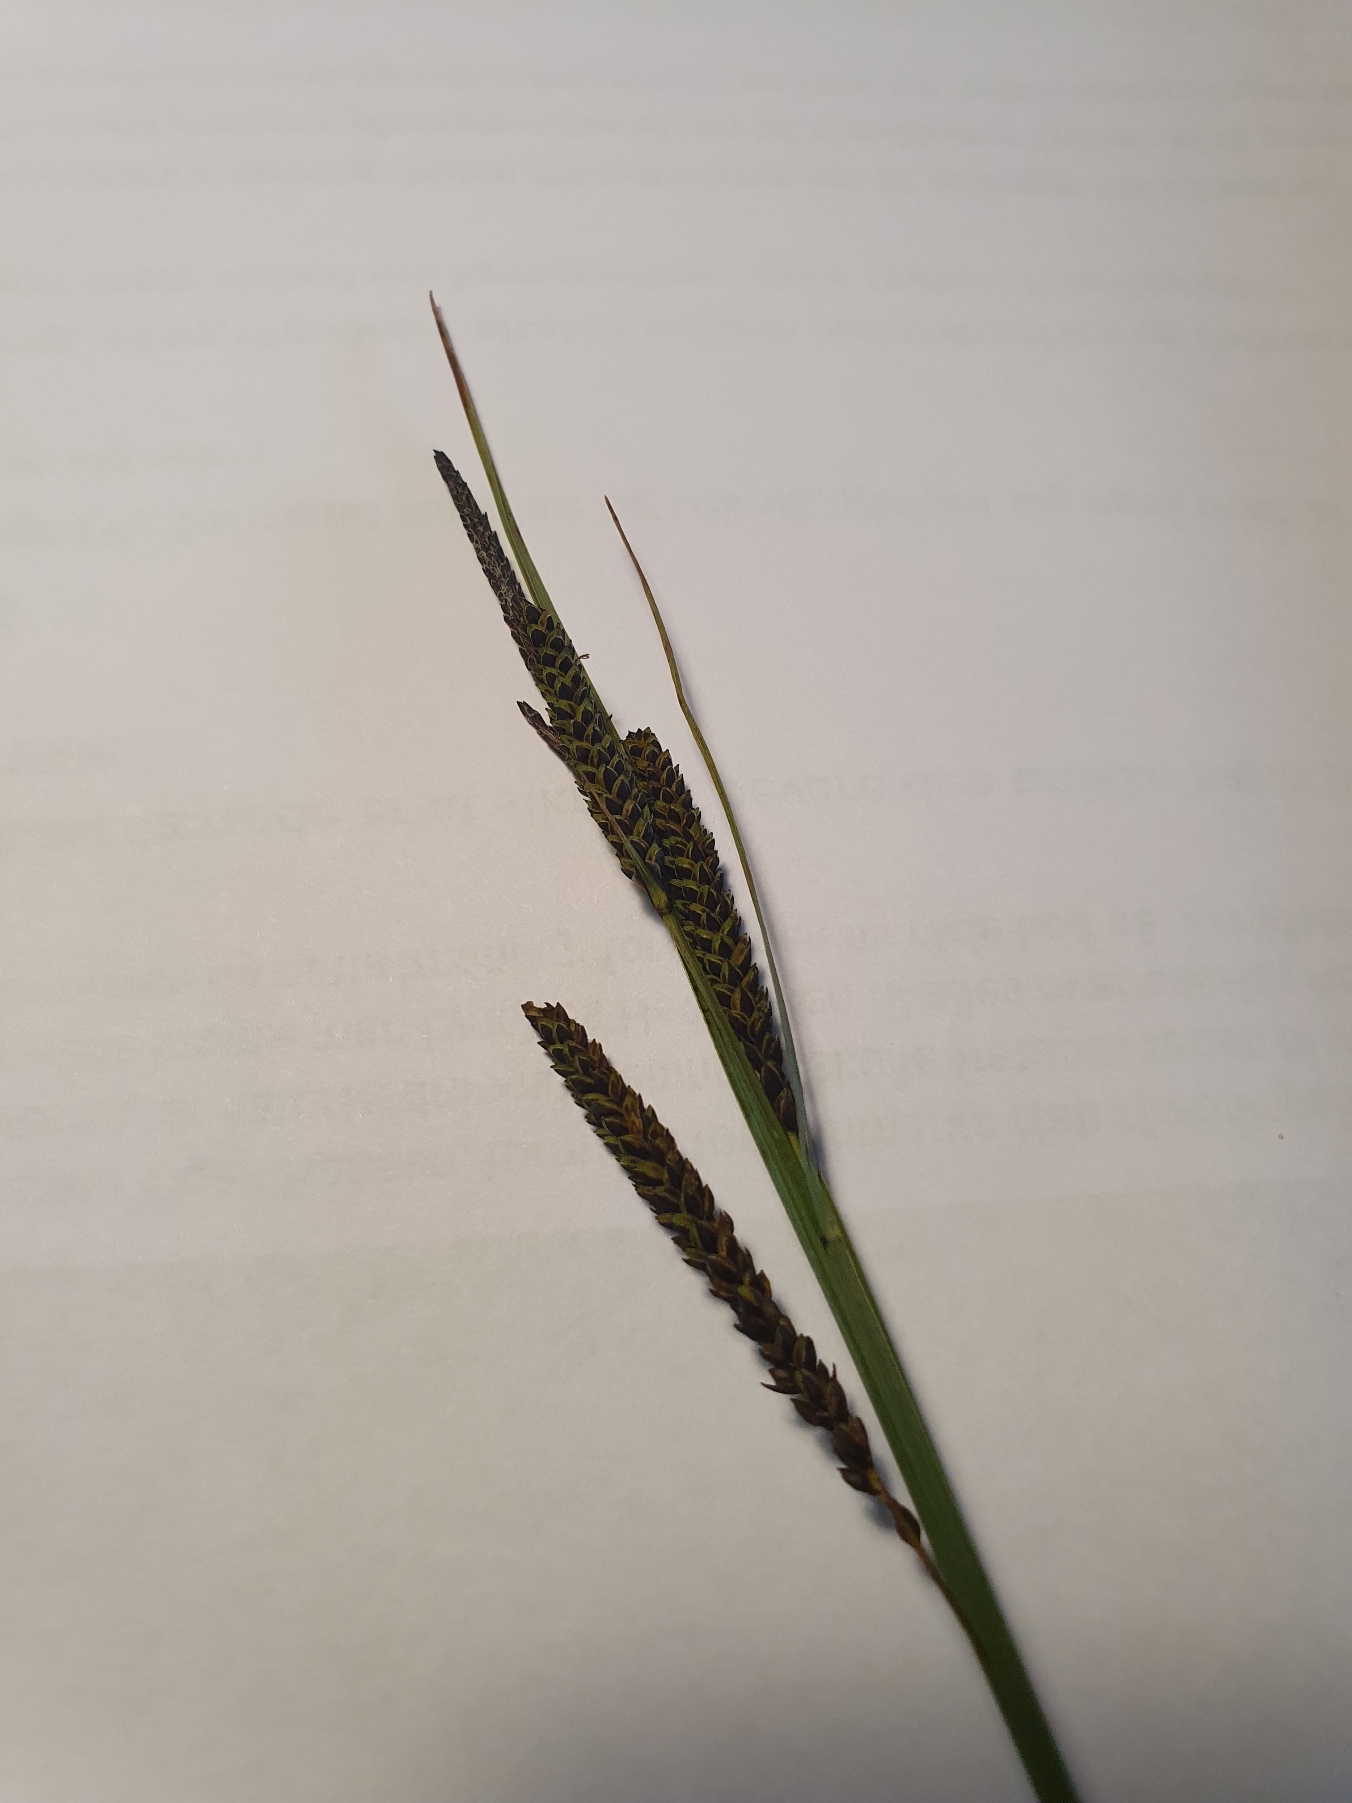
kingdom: Plantae
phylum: Tracheophyta
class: Liliopsida
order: Poales
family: Cyperaceae
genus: Carex
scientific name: Carex nigra
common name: Almindelig star
